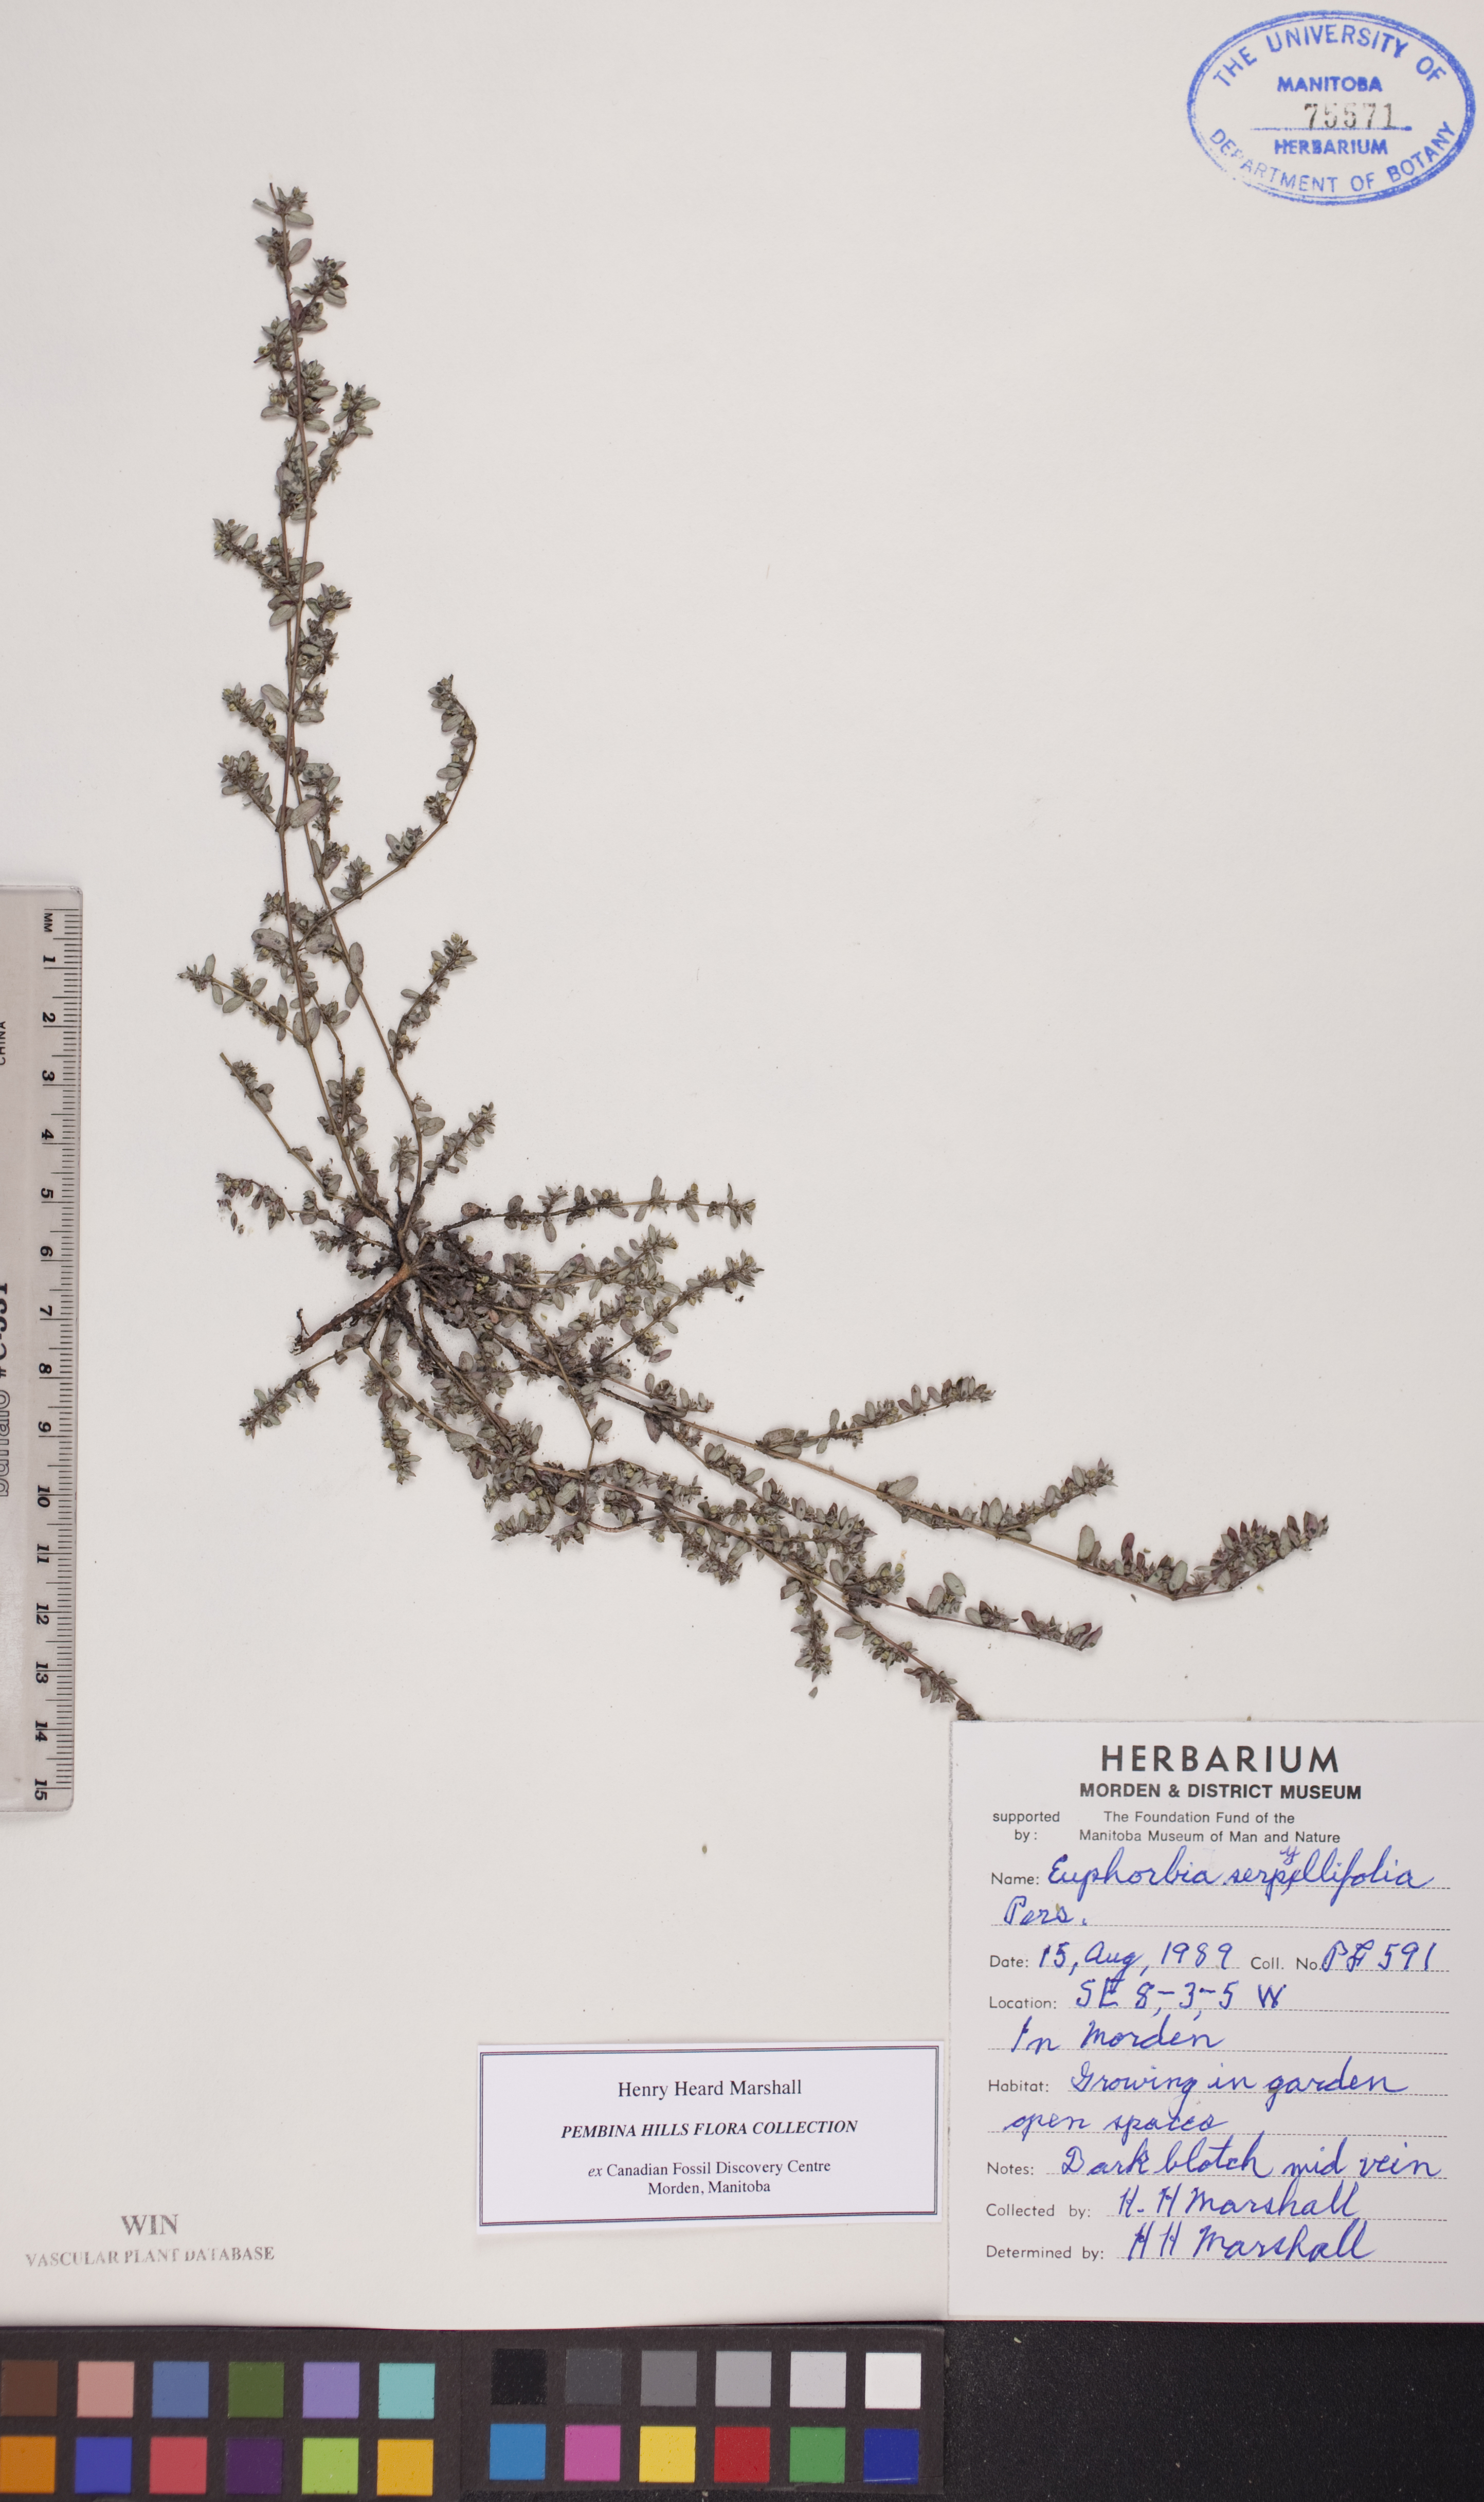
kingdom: Plantae
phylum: Tracheophyta
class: Magnoliopsida
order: Malpighiales
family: Euphorbiaceae
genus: Euphorbia
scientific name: Euphorbia serpillifolia
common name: Thyme-leaf spurge
